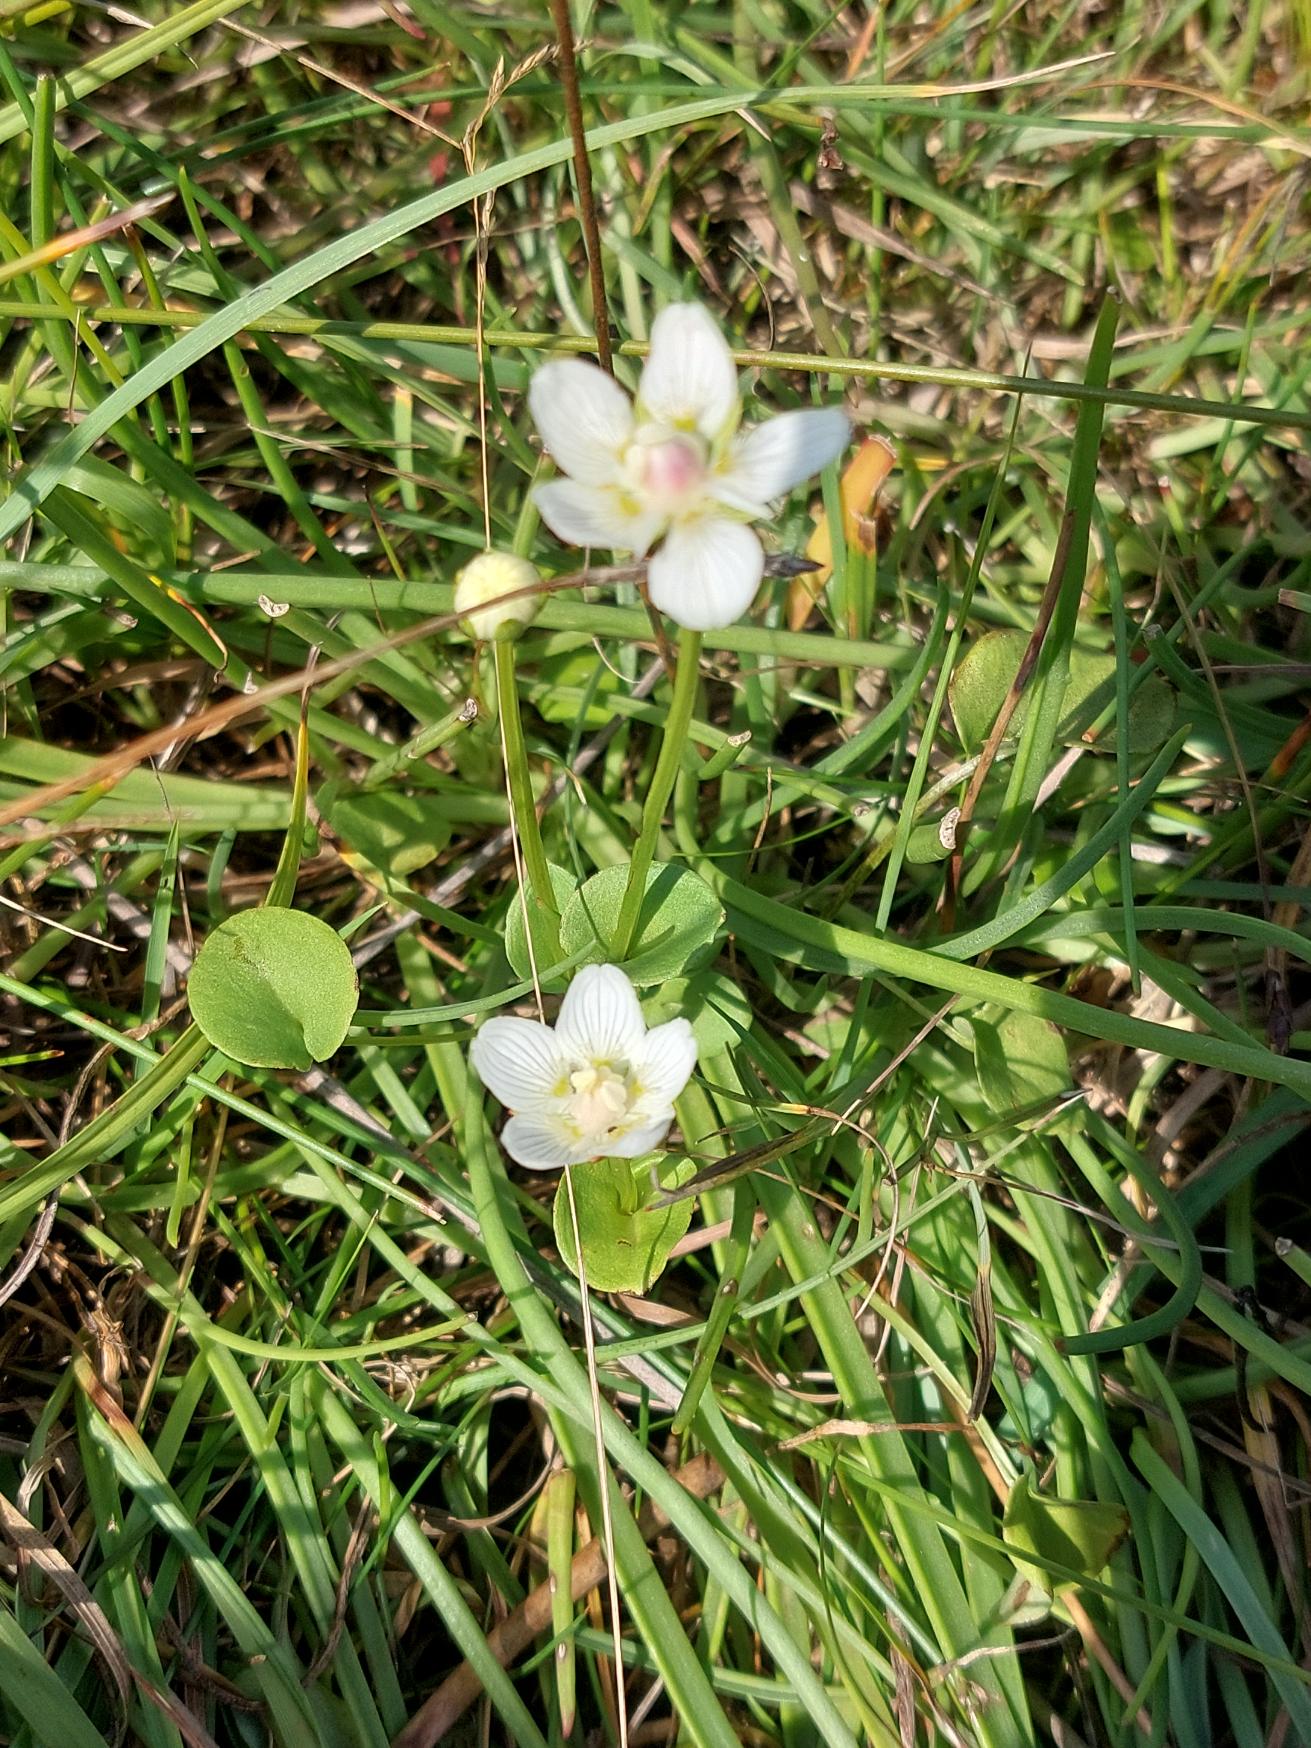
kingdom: Plantae
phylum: Tracheophyta
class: Magnoliopsida
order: Celastrales
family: Parnassiaceae
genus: Parnassia
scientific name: Parnassia palustris
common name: Leverurt
